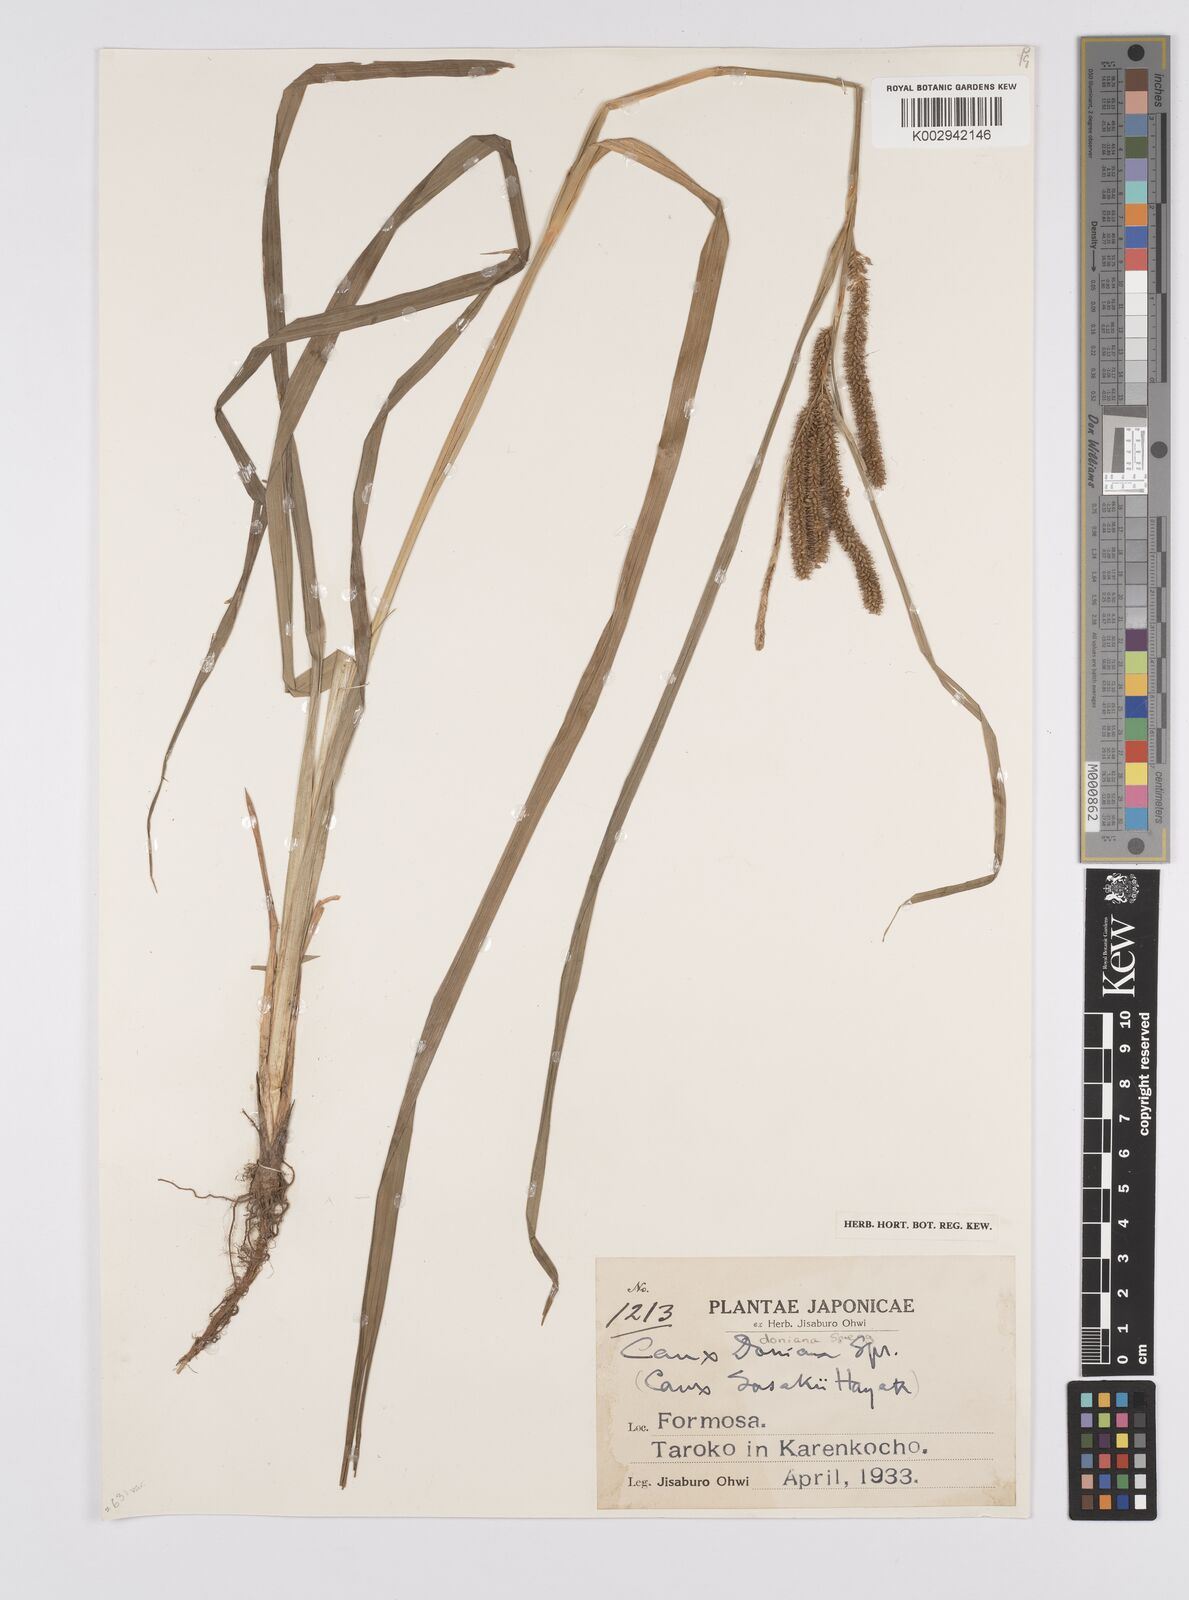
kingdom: Plantae
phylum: Tracheophyta
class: Liliopsida
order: Poales
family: Cyperaceae
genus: Carex
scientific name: Carex japonica
